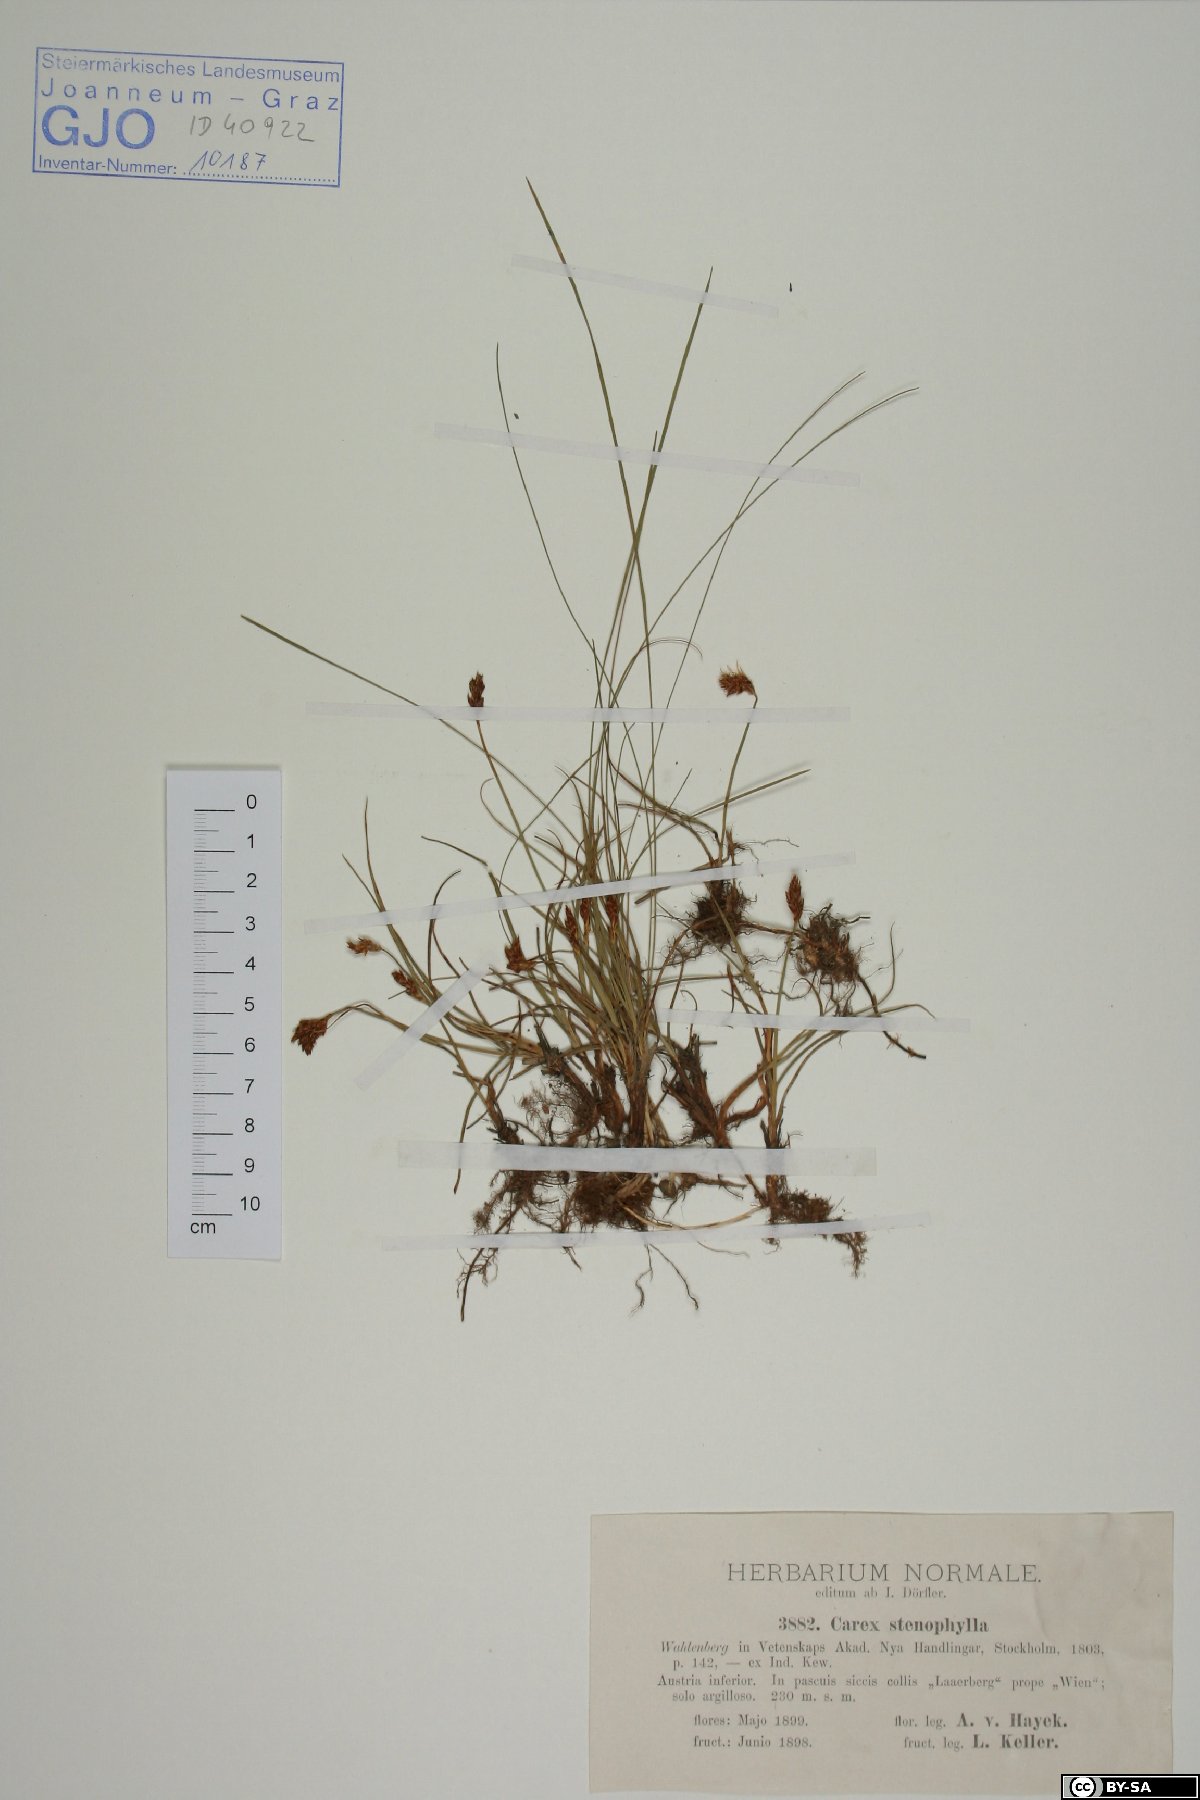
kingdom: Plantae
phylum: Tracheophyta
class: Liliopsida
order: Poales
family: Cyperaceae
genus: Carex
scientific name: Carex stenophylla
